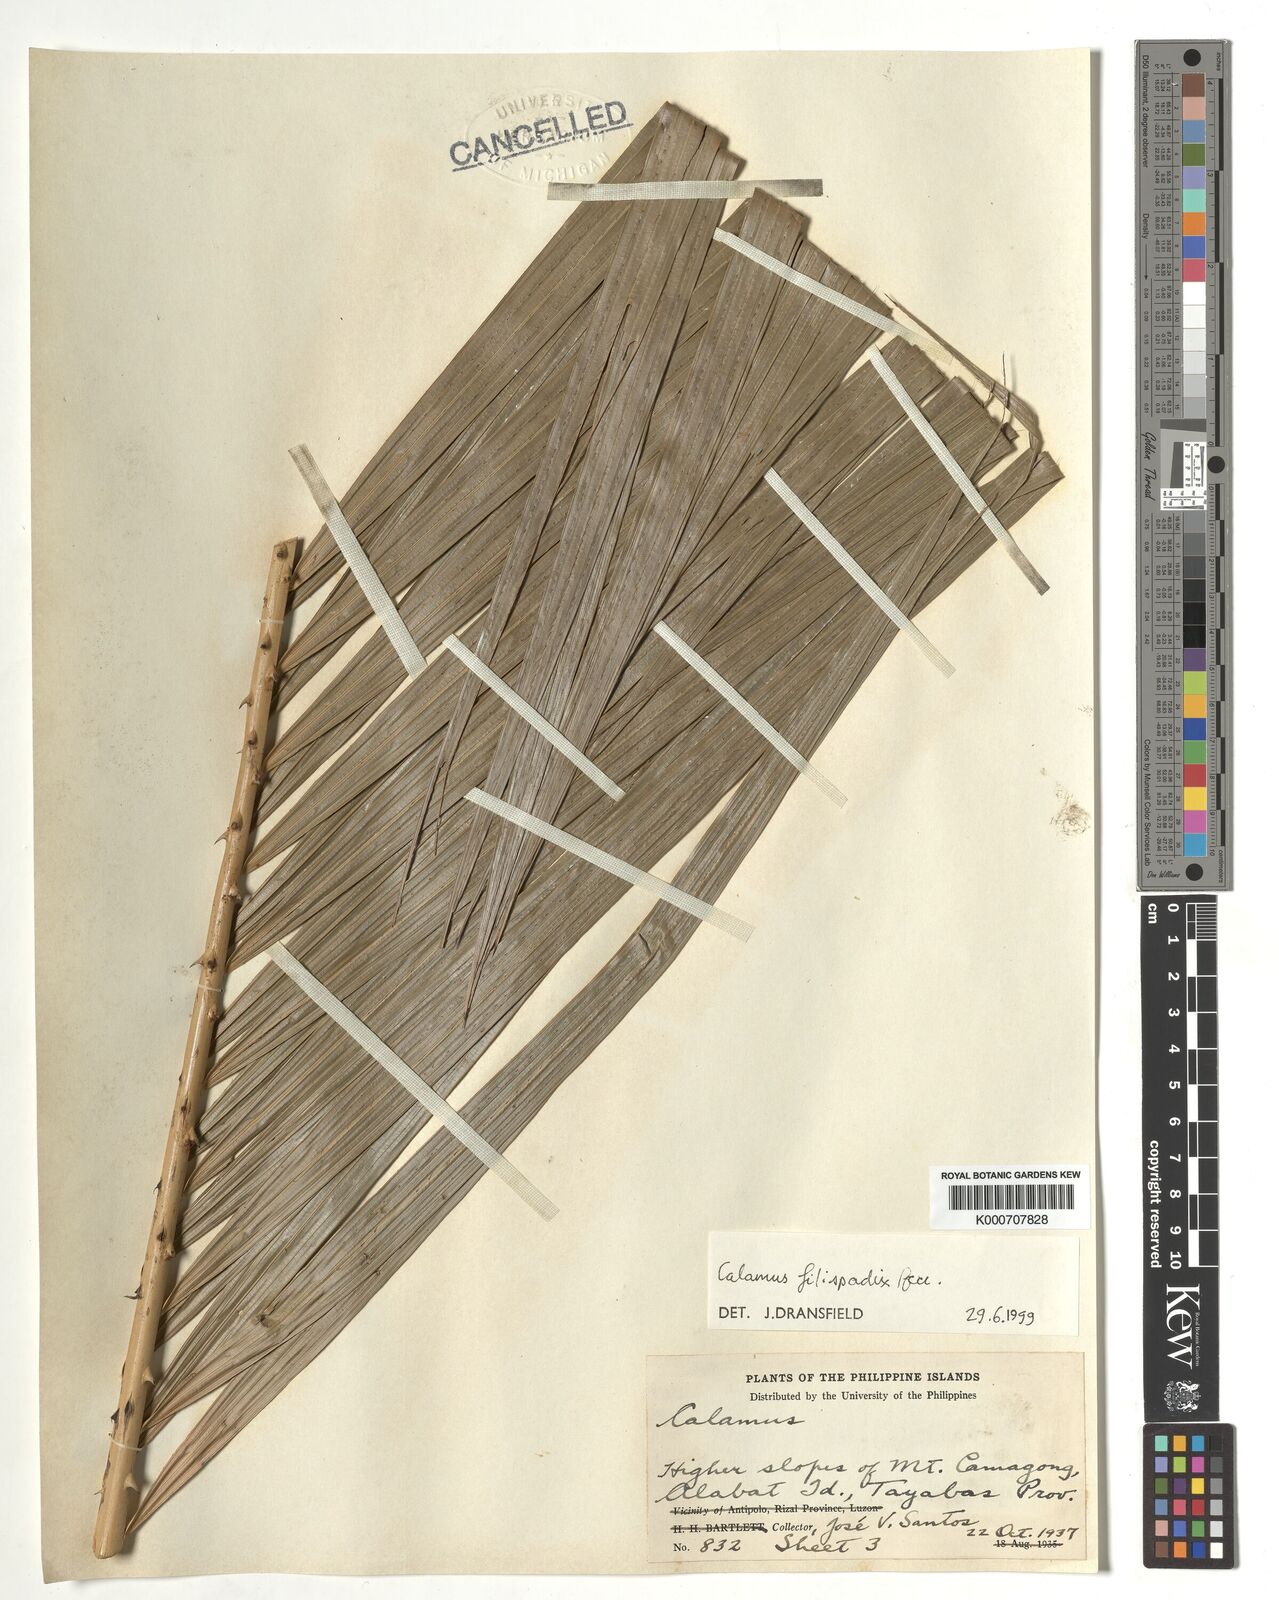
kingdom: Plantae
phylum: Tracheophyta
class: Liliopsida
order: Arecales
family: Arecaceae
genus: Calamus
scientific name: Calamus filispadix
